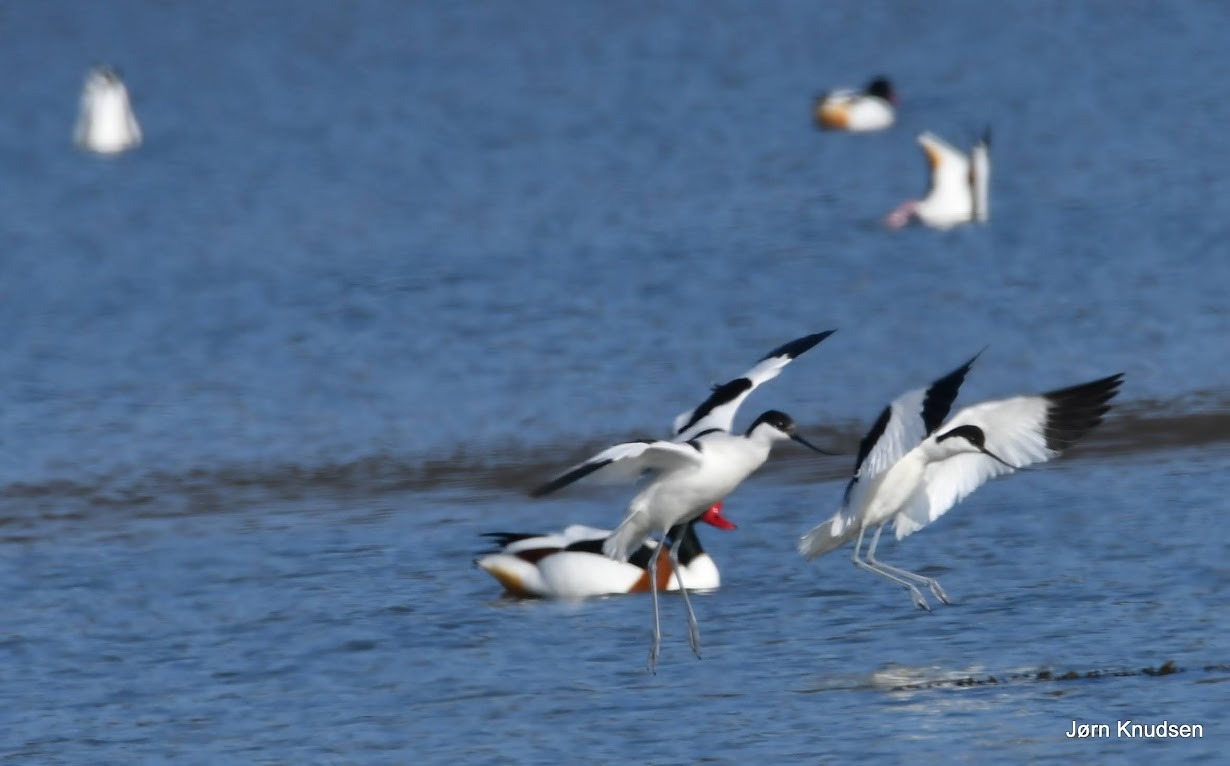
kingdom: Animalia
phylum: Chordata
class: Aves
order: Charadriiformes
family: Recurvirostridae
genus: Recurvirostra
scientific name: Recurvirostra avosetta
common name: Klyde
